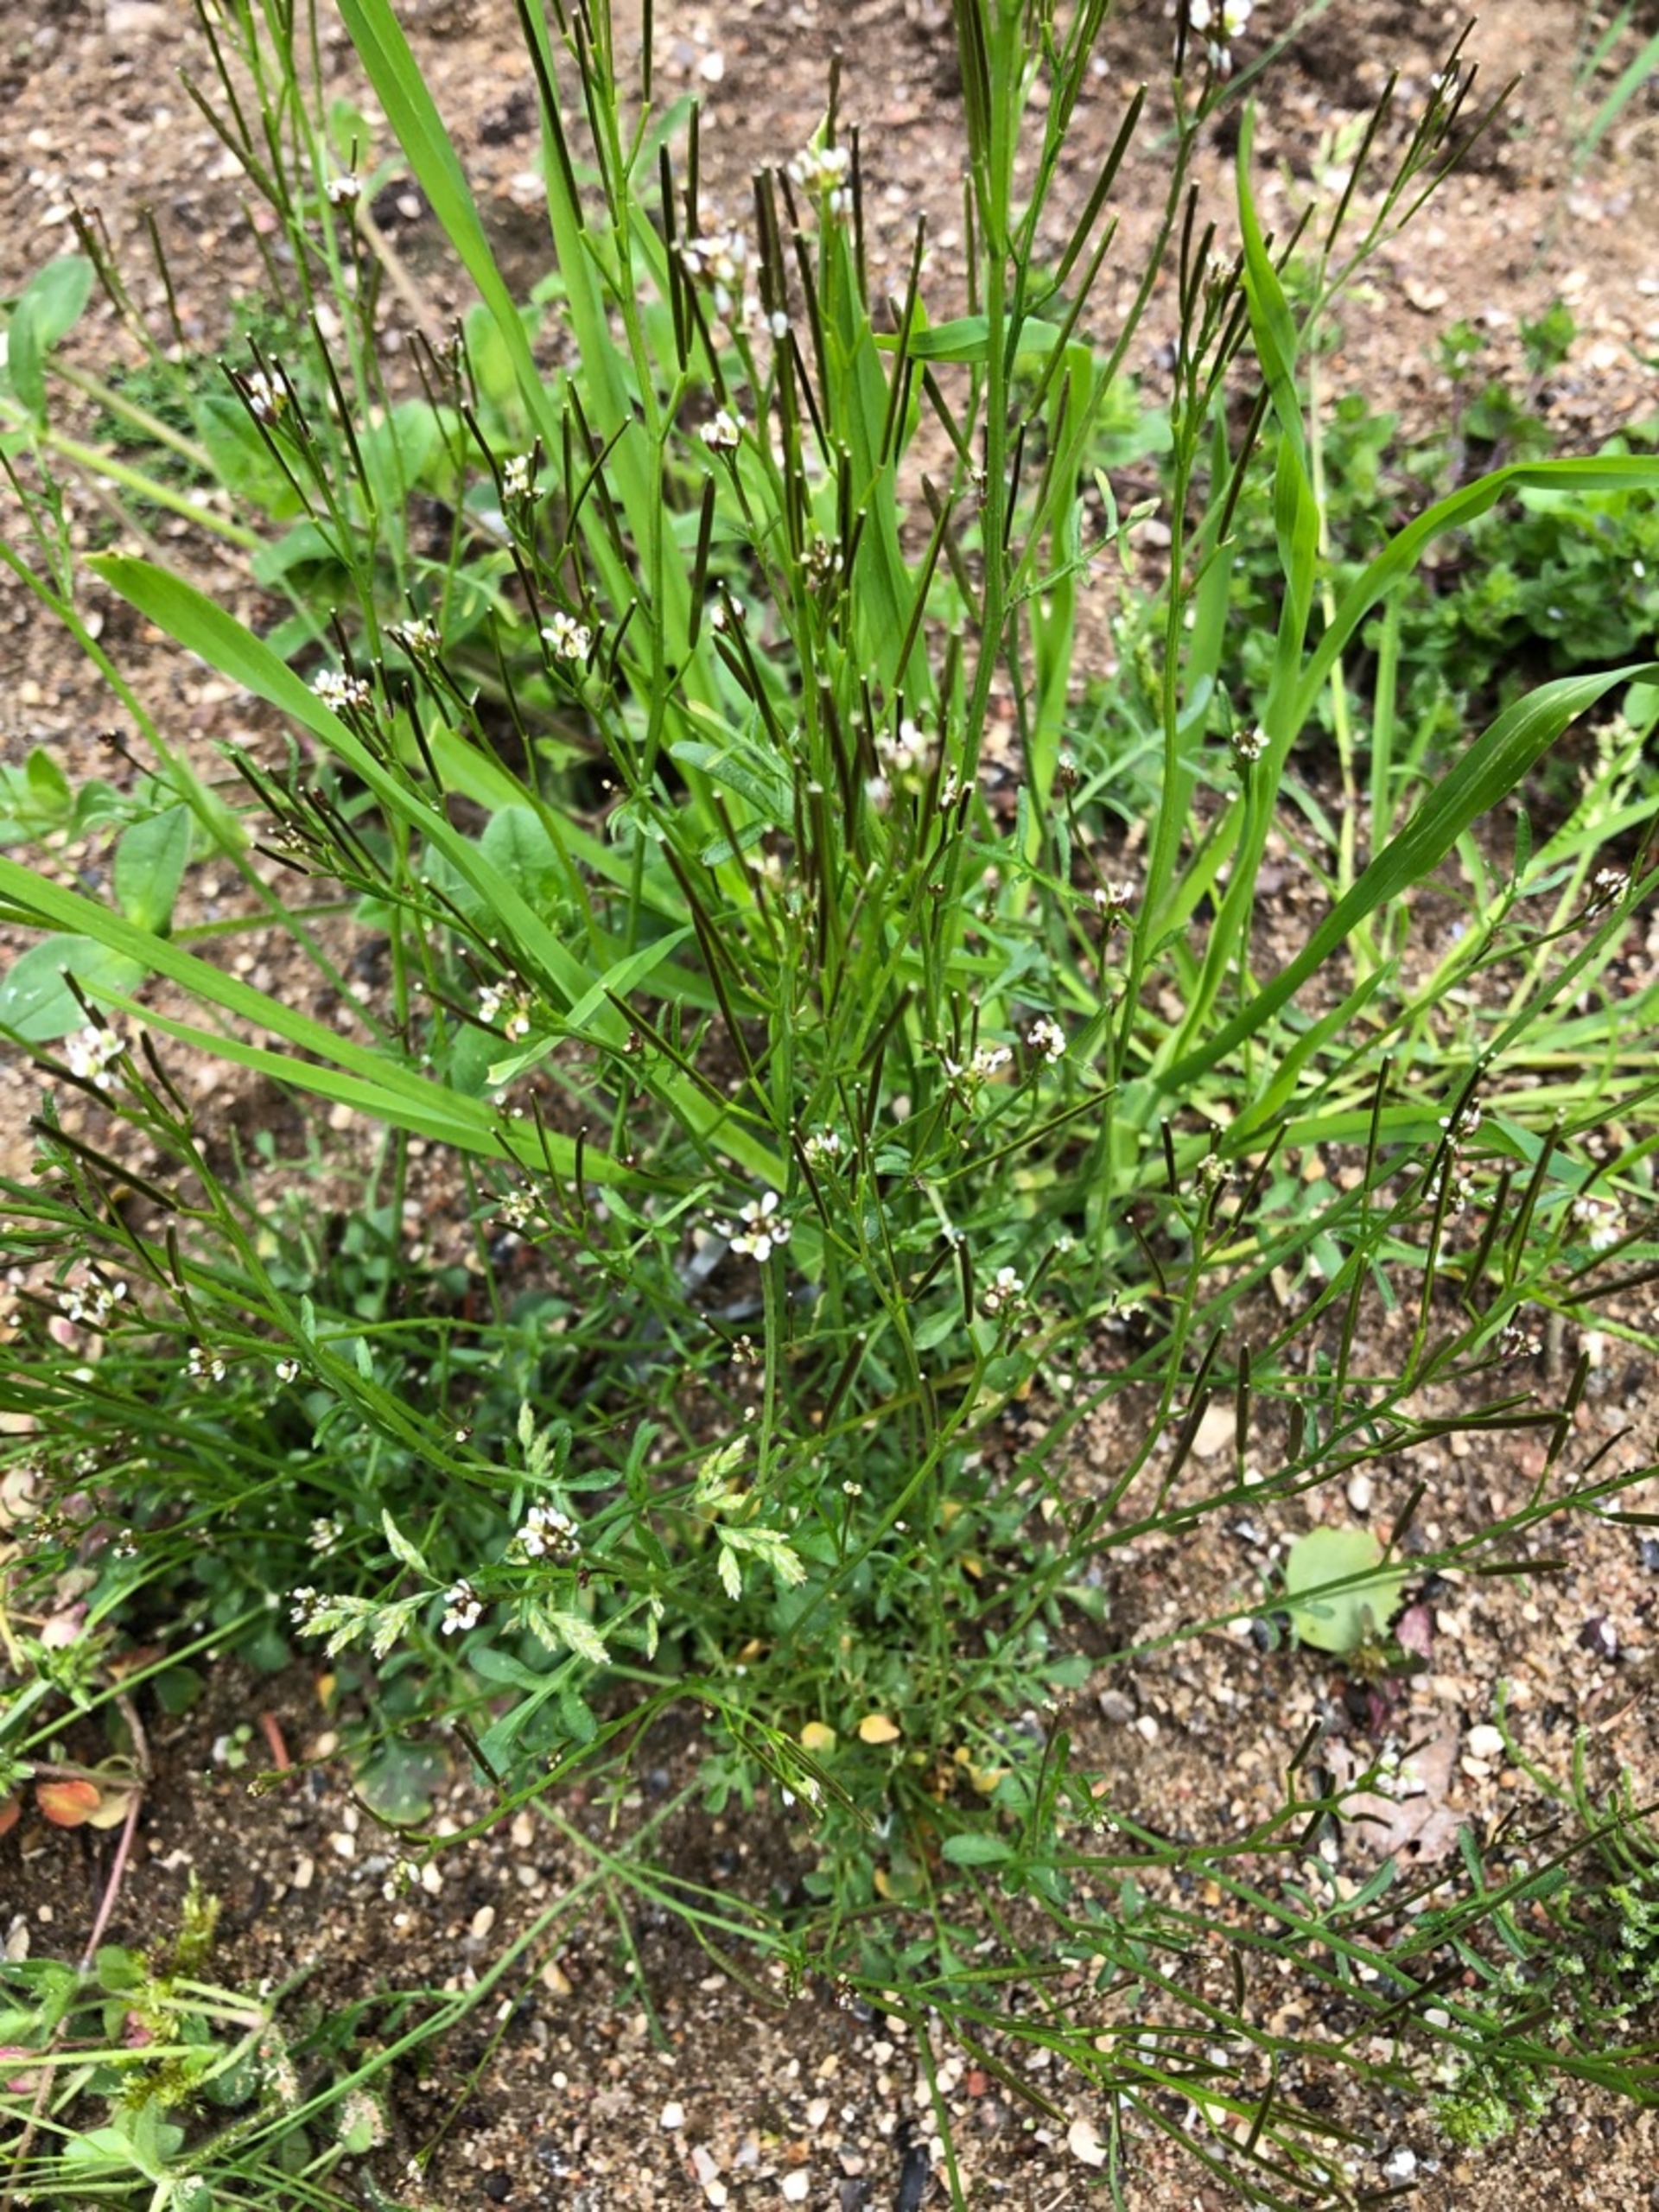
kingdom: Plantae
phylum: Tracheophyta
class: Magnoliopsida
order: Brassicales
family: Brassicaceae
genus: Cardamine
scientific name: Cardamine hirsuta
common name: Roset-springklap
